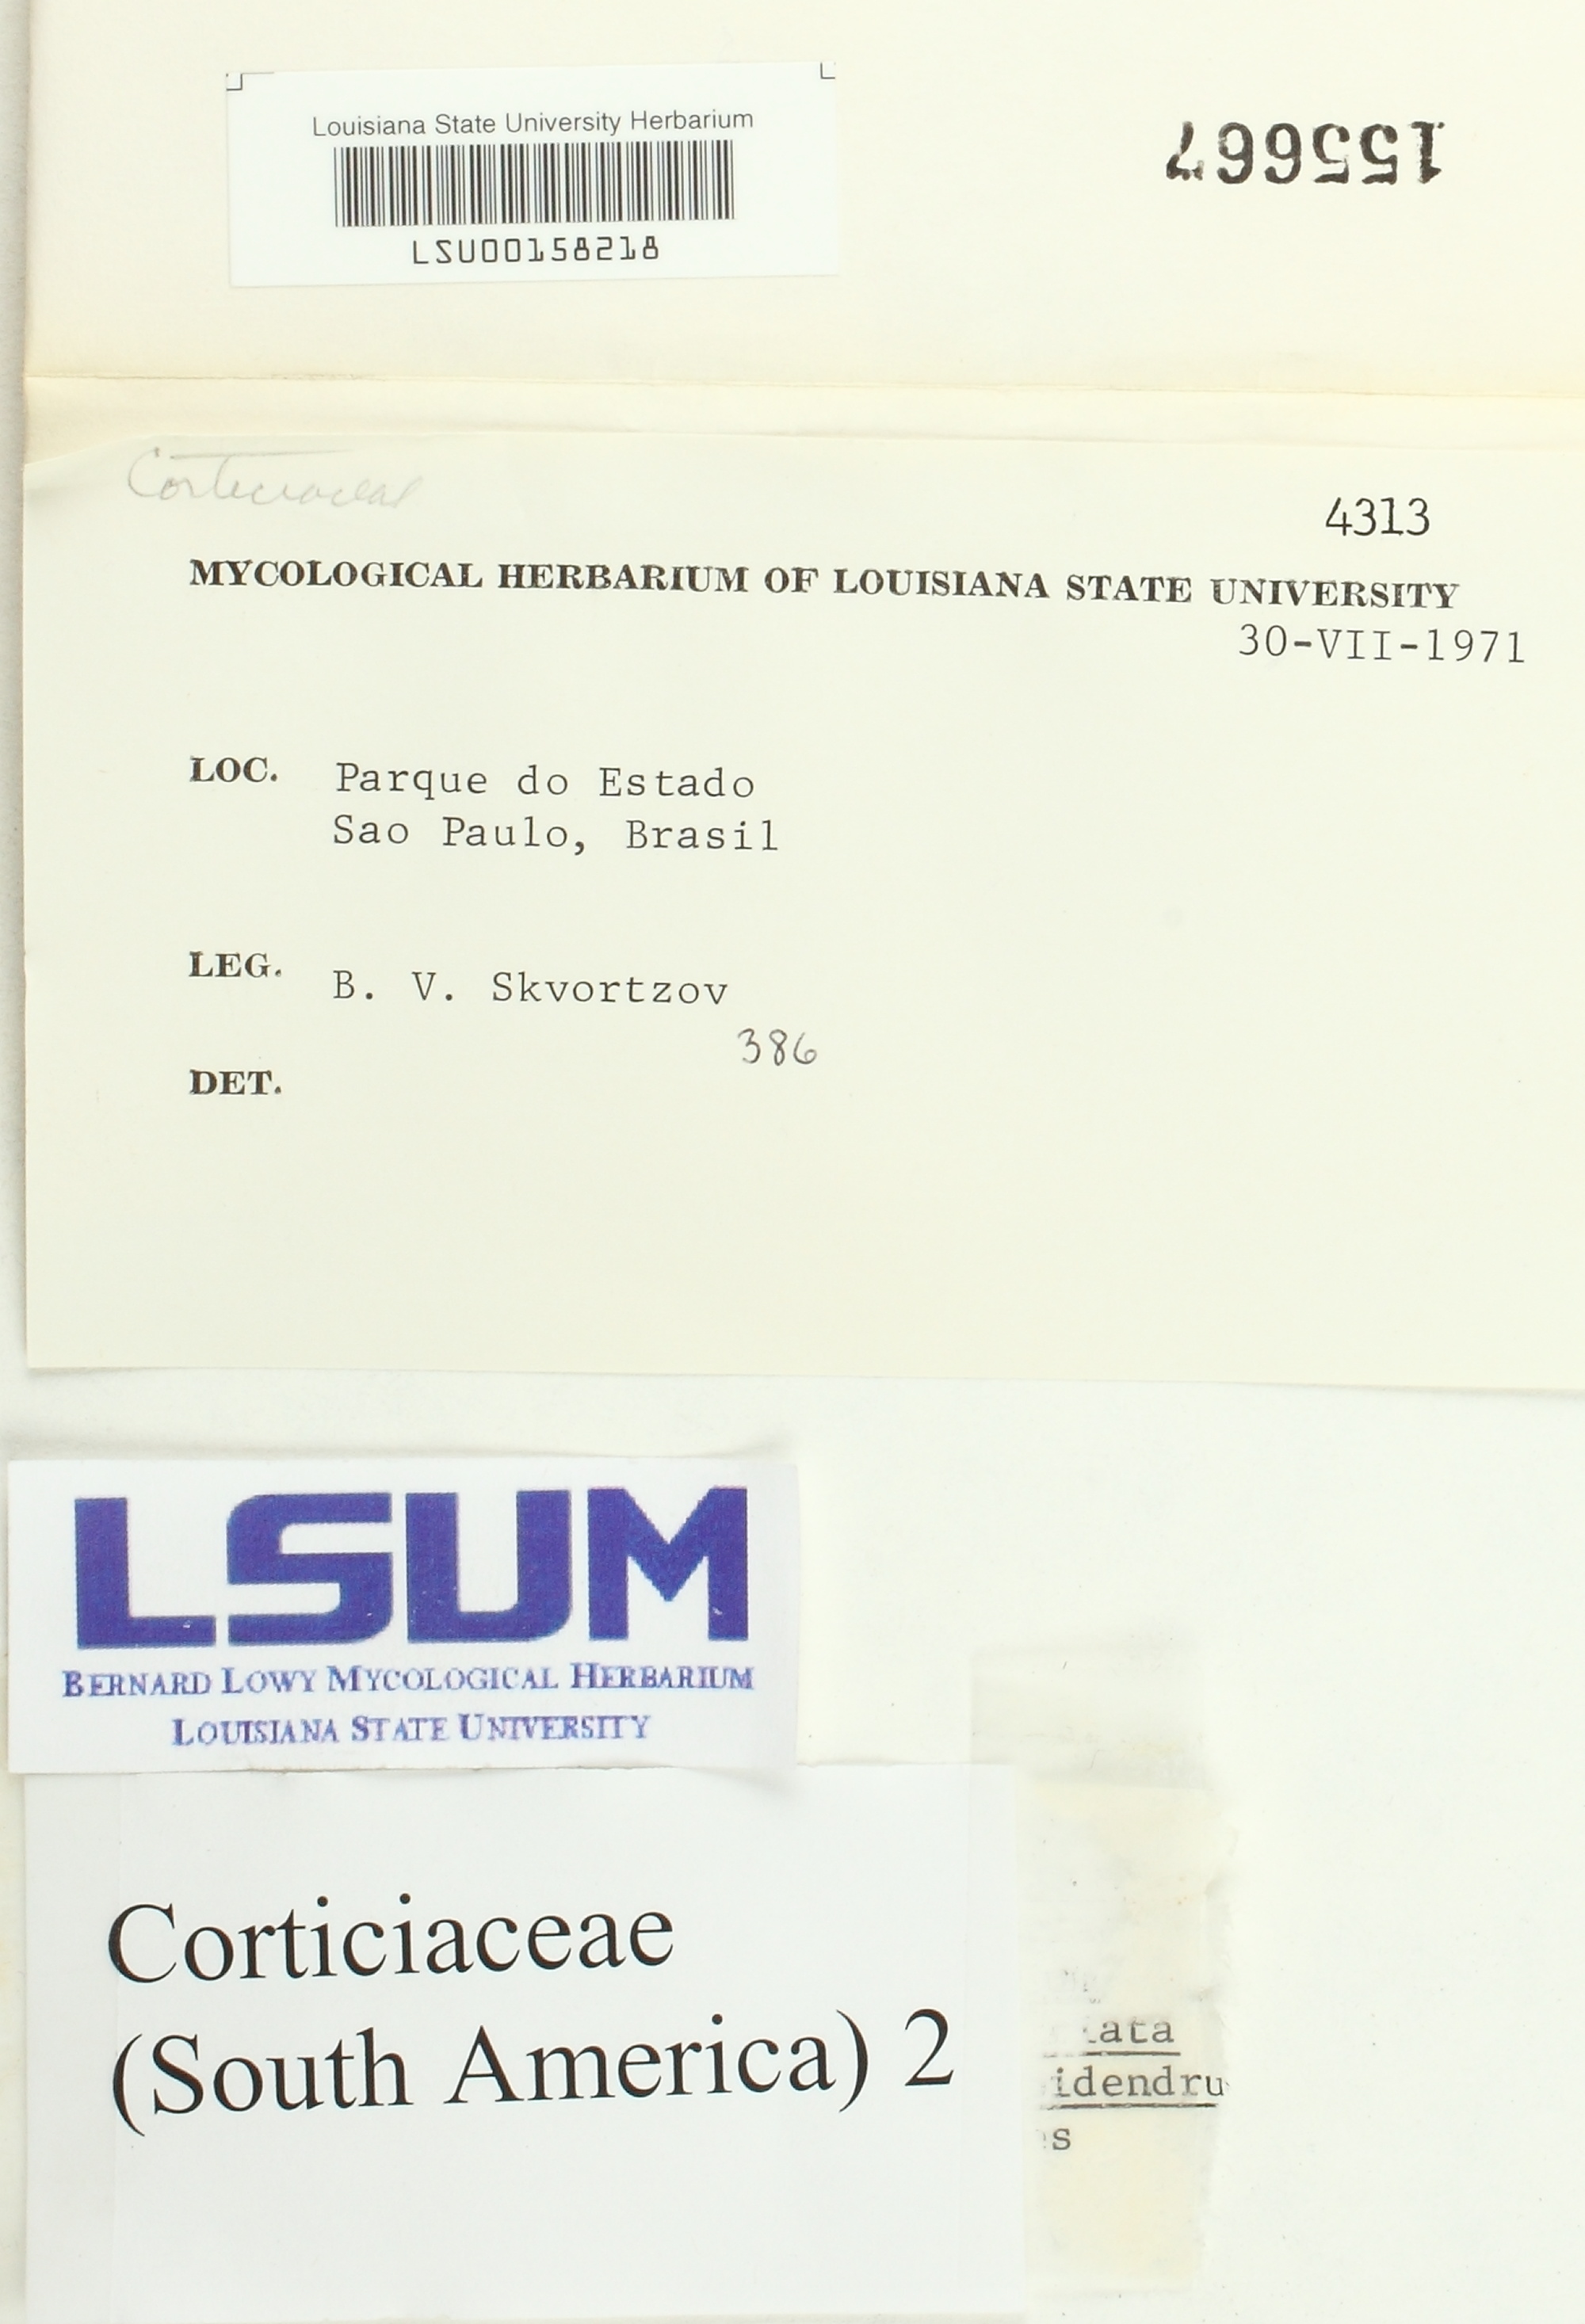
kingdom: Fungi
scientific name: Fungi
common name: Fungi
